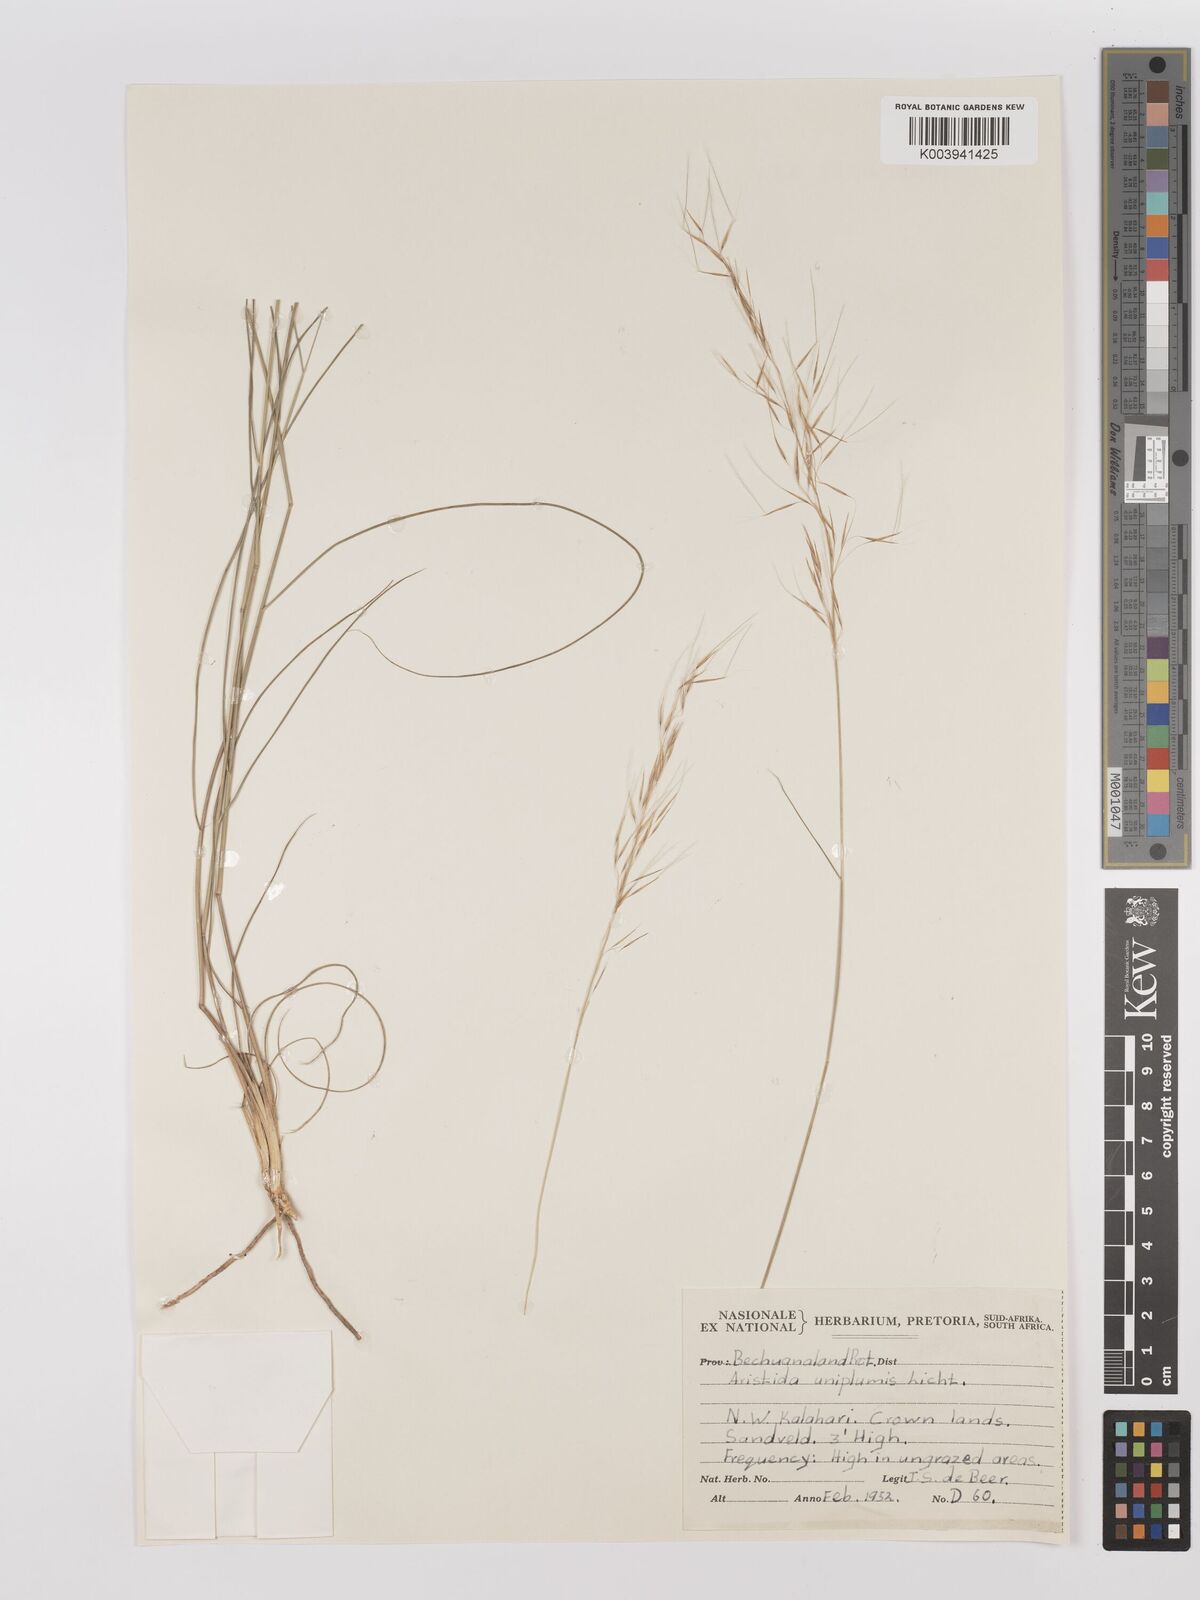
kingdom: Plantae
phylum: Tracheophyta
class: Liliopsida
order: Poales
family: Poaceae
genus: Stipagrostis
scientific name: Stipagrostis uniplumis
